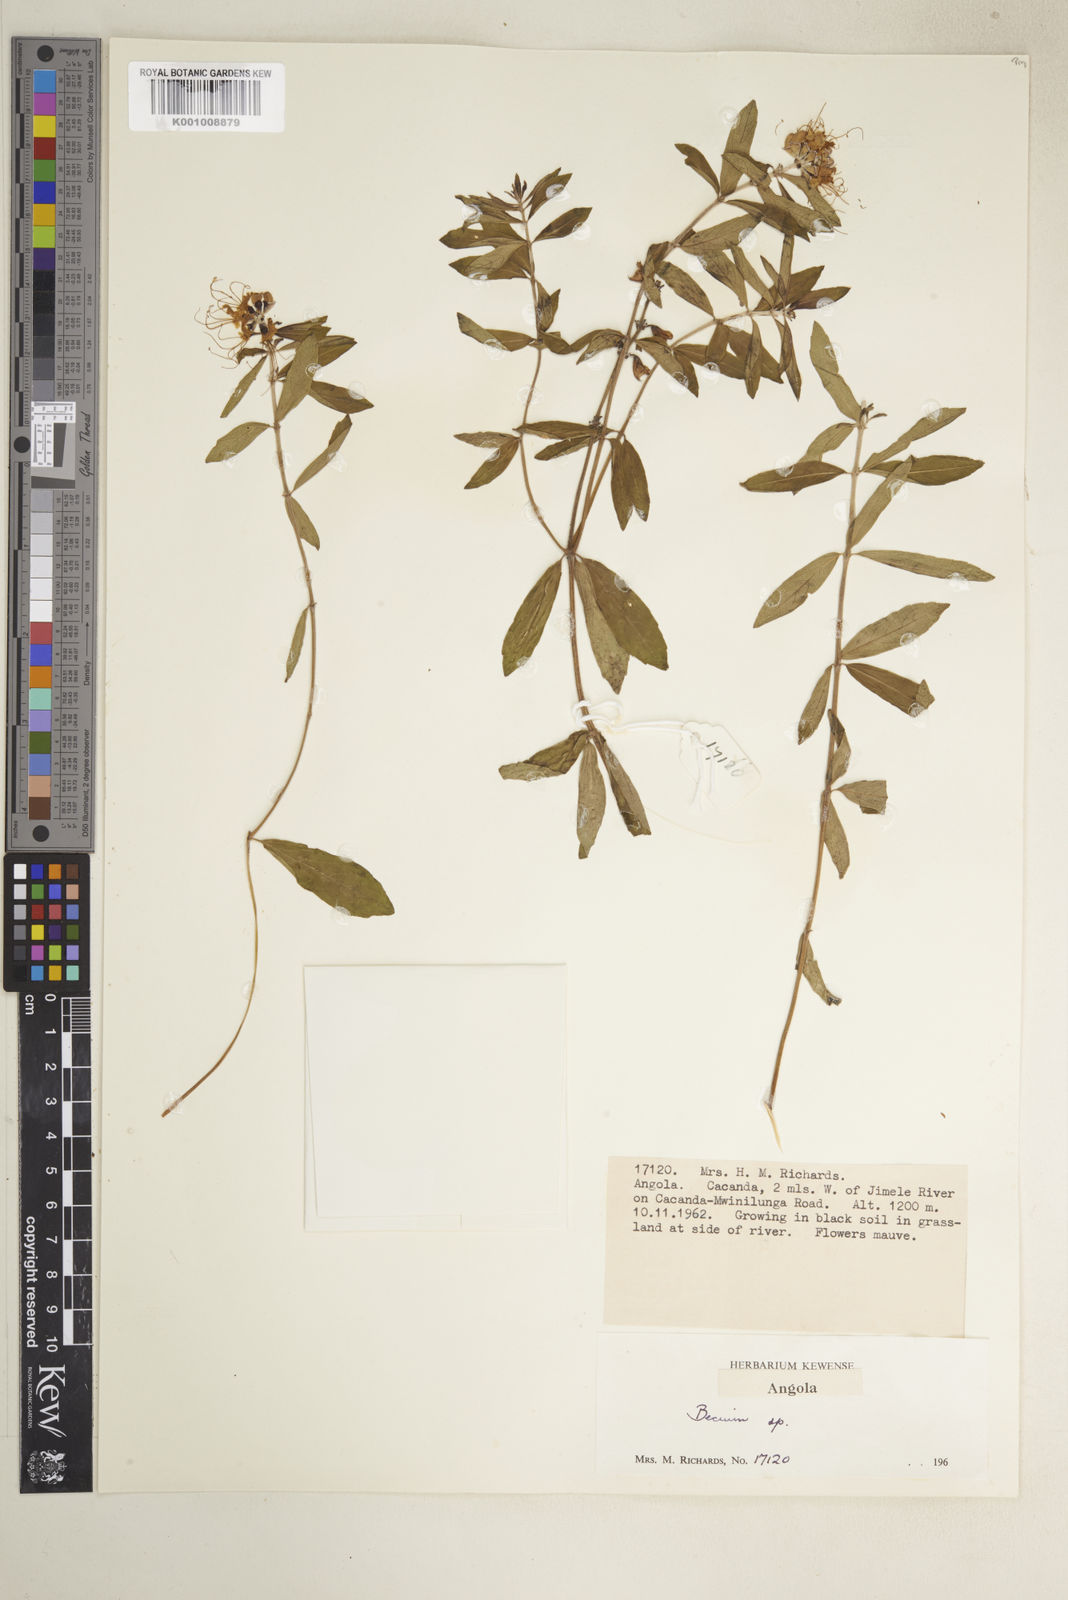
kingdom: Plantae
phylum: Tracheophyta
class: Magnoliopsida
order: Lamiales
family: Lamiaceae
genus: Ocimum
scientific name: Ocimum obovatum
